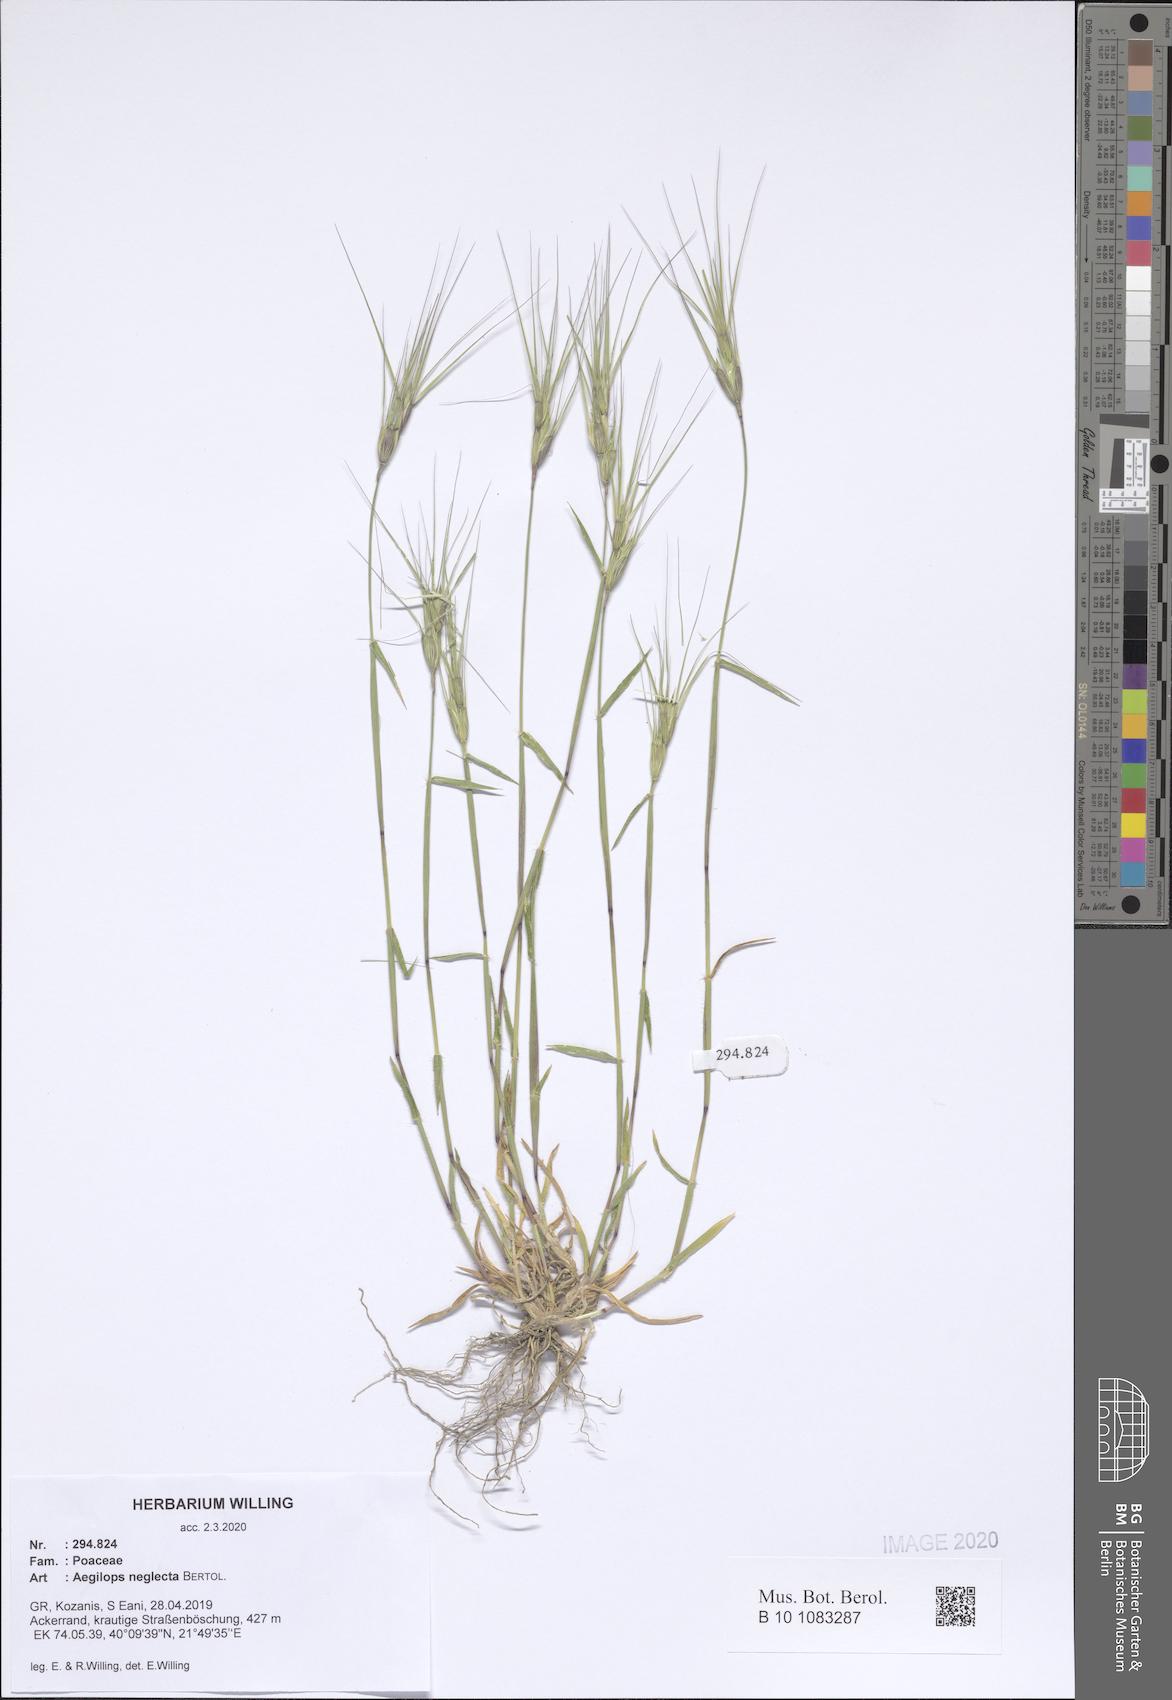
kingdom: Plantae
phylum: Tracheophyta
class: Liliopsida
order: Poales
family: Poaceae
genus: Aegilops
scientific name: Aegilops neglecta
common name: Three-awn goat grass
